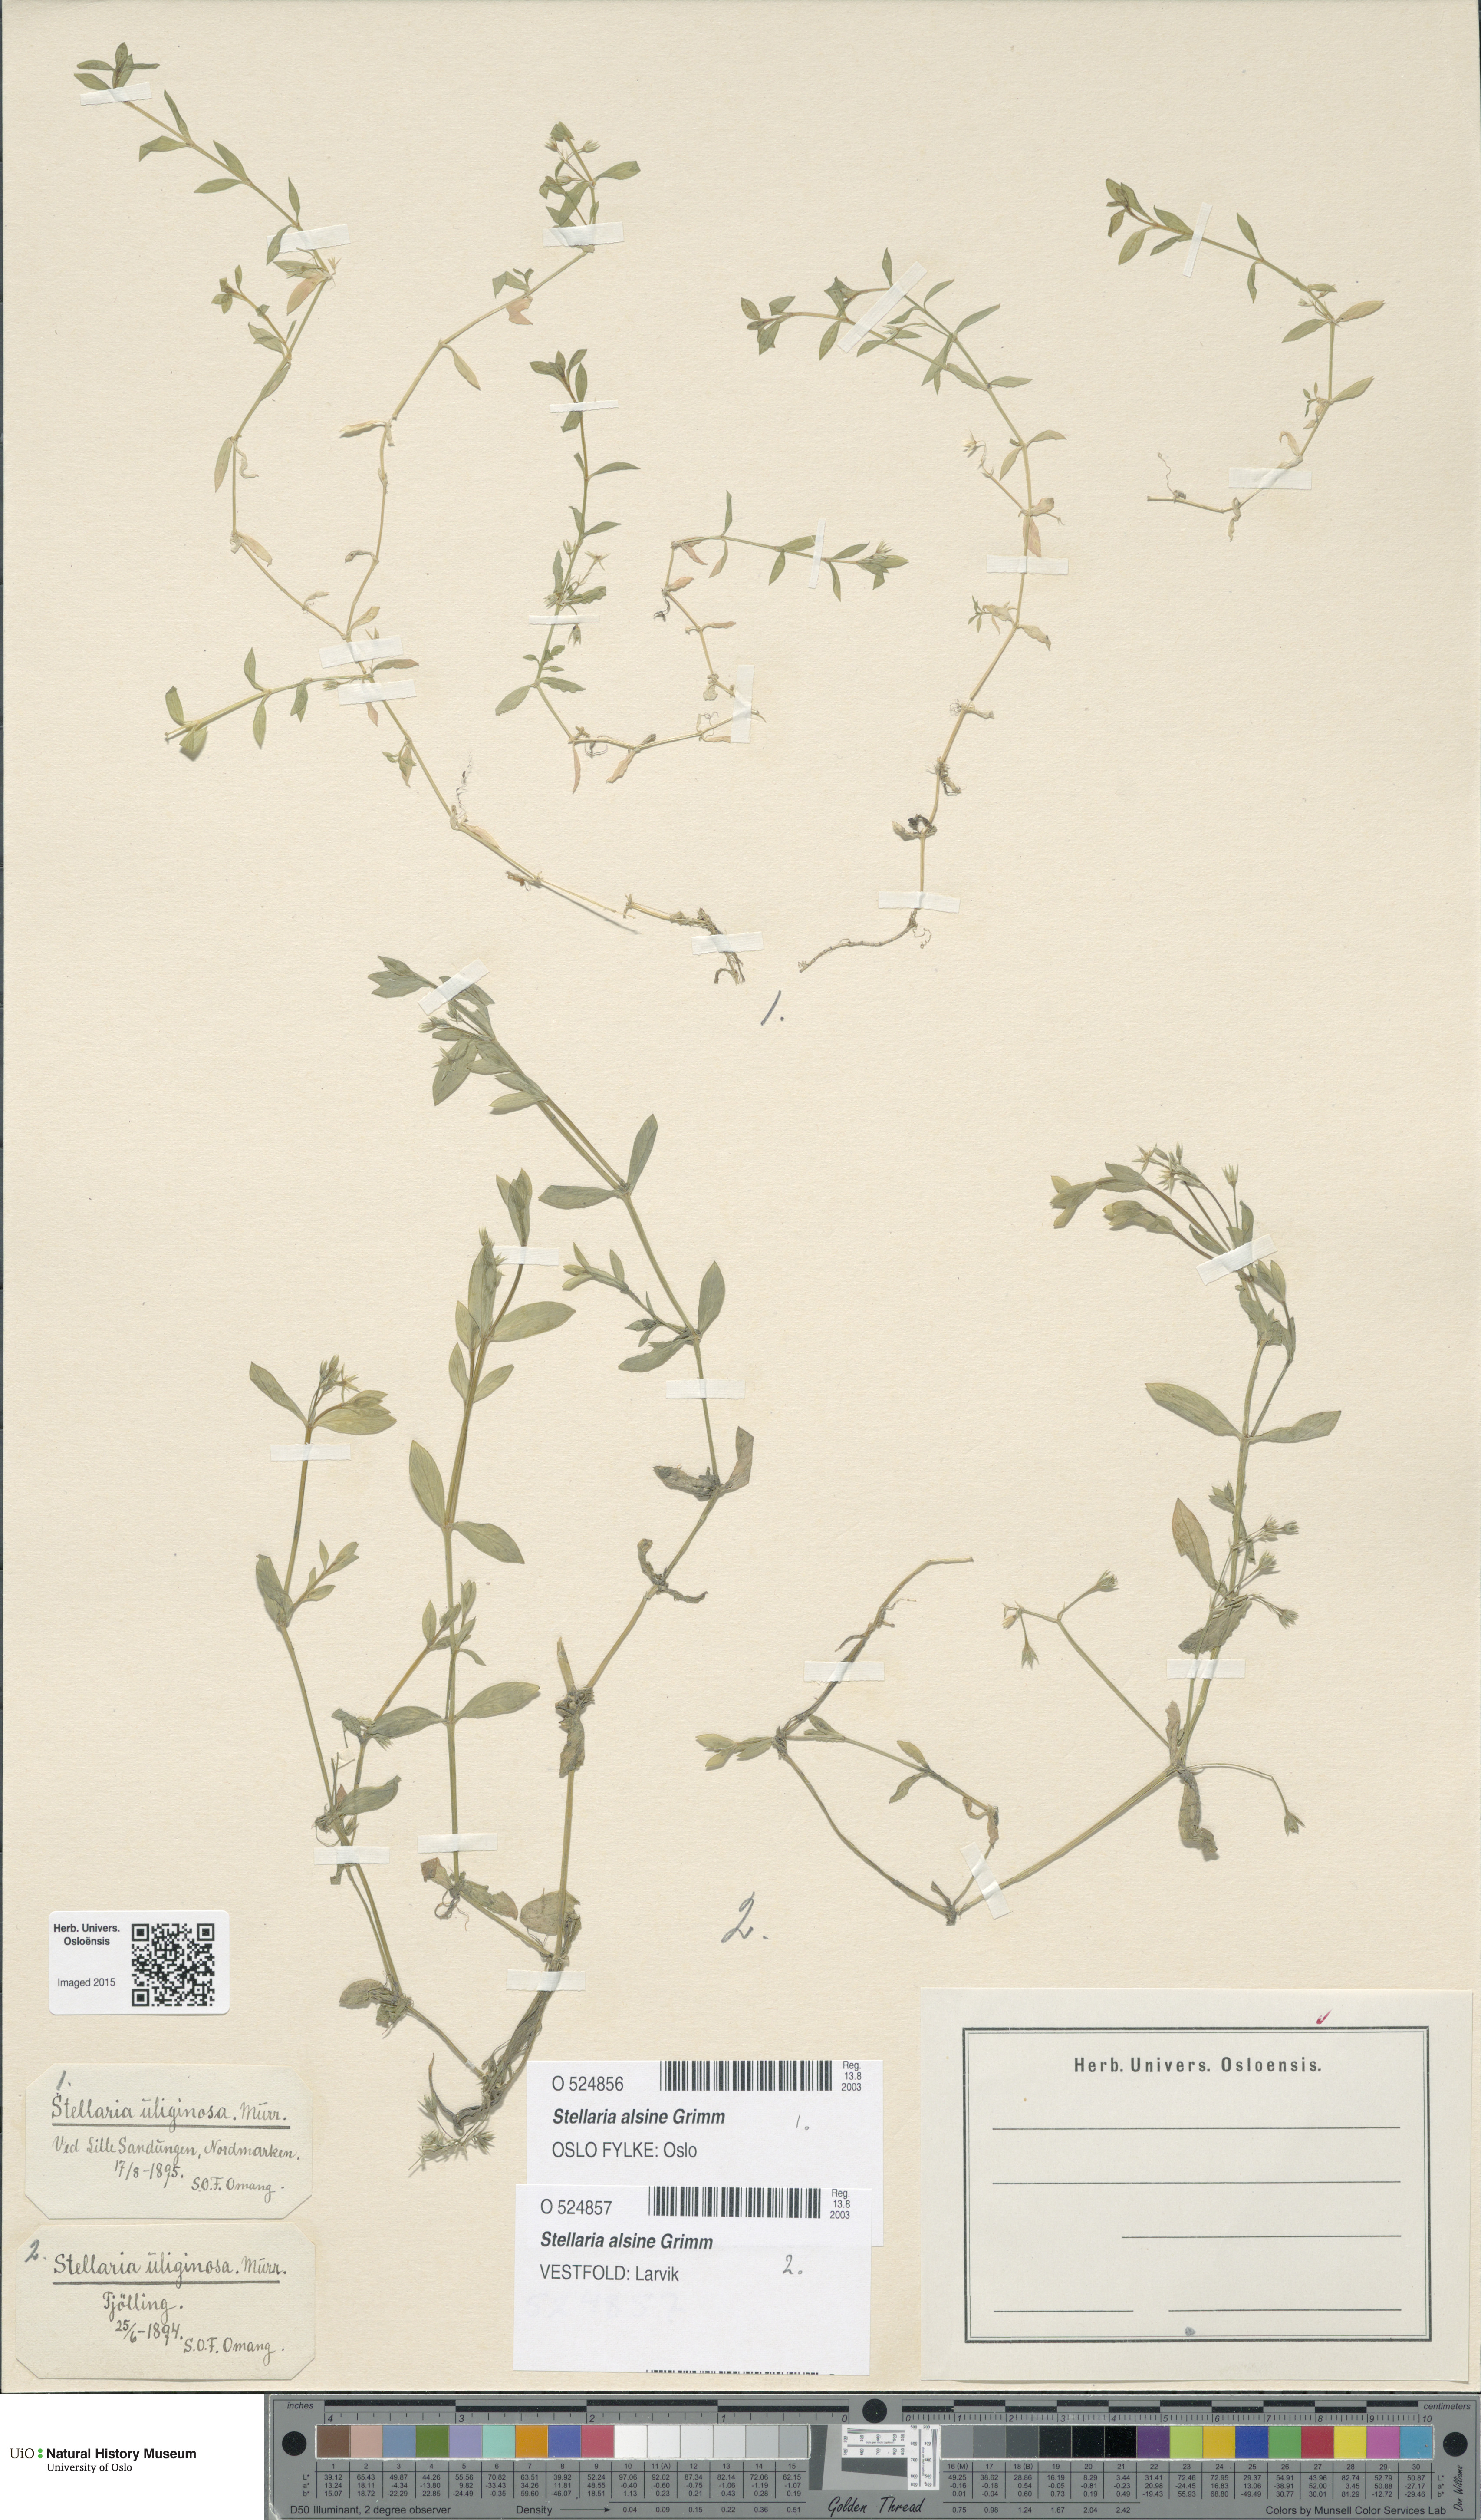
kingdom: Plantae
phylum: Tracheophyta
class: Magnoliopsida
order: Caryophyllales
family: Caryophyllaceae
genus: Stellaria
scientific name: Stellaria alsine
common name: Bog stitchwort
